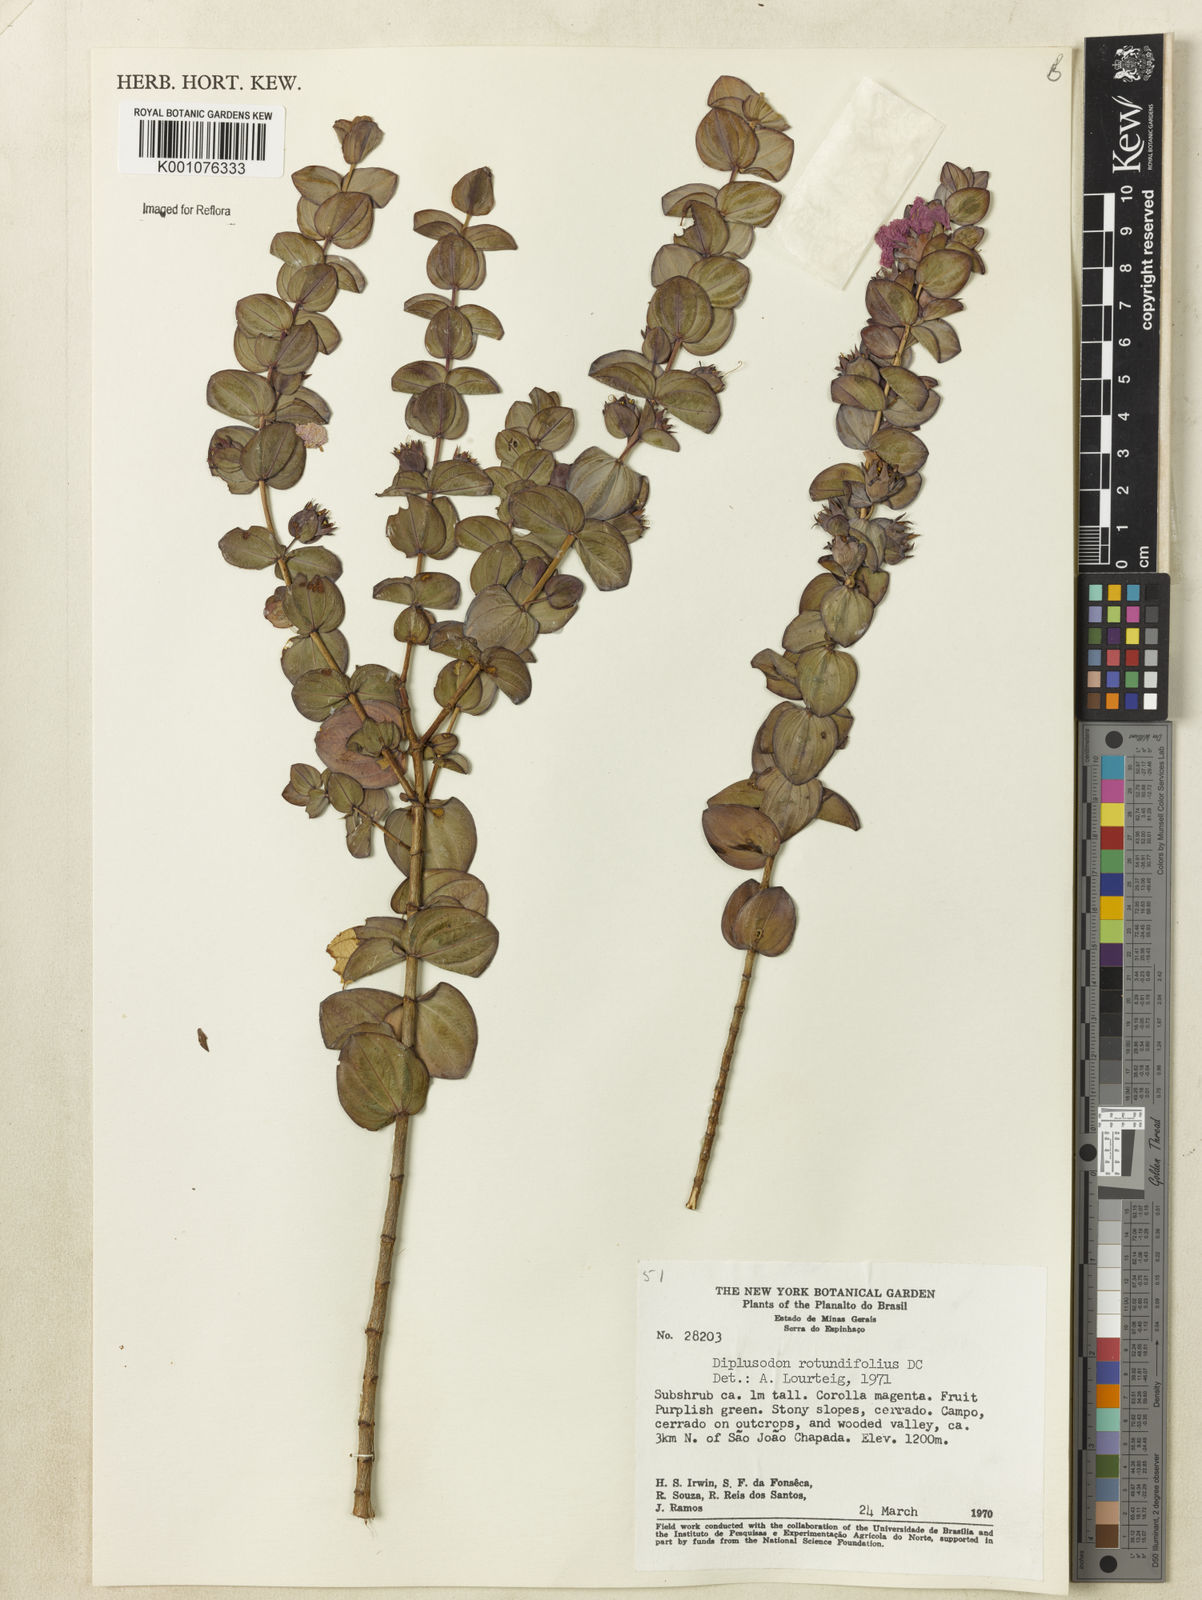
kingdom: Plantae
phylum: Tracheophyta
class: Magnoliopsida
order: Myrtales
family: Lythraceae
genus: Diplusodon
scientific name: Diplusodon rotundifolius
